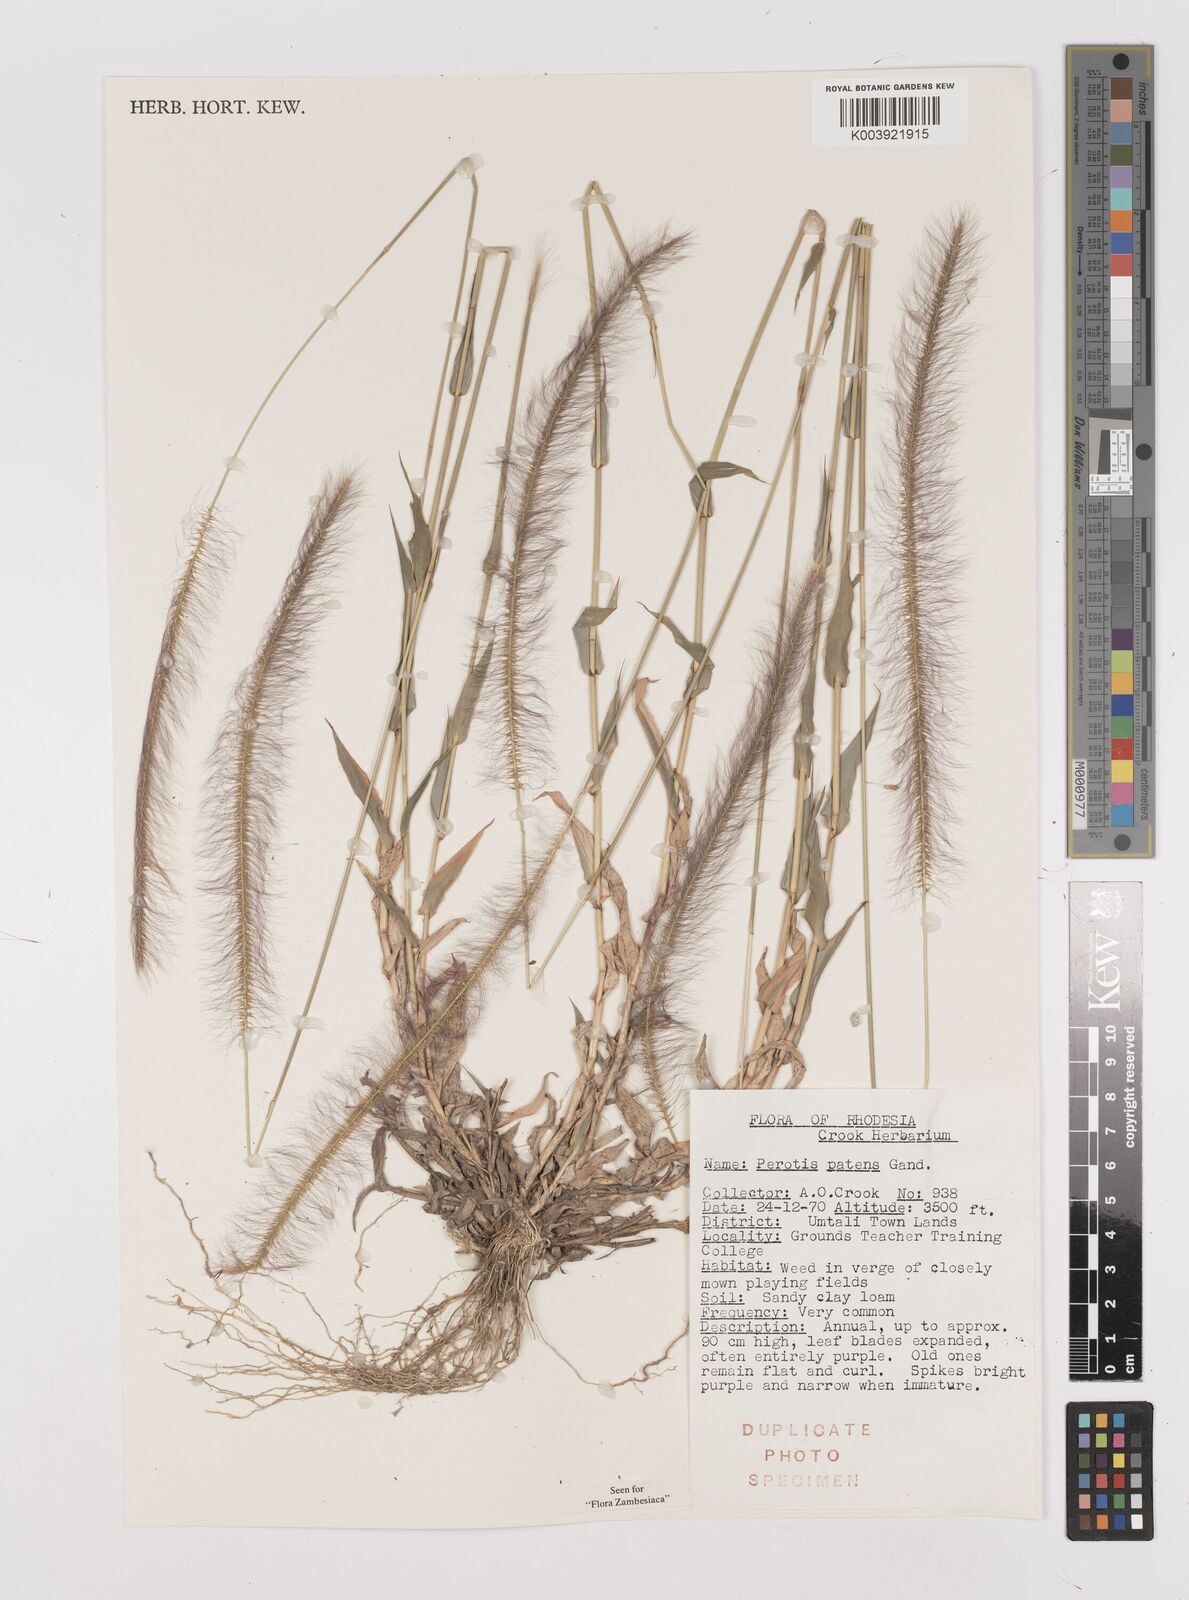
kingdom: Plantae
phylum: Tracheophyta
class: Liliopsida
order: Poales
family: Poaceae
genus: Perotis
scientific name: Perotis patens
